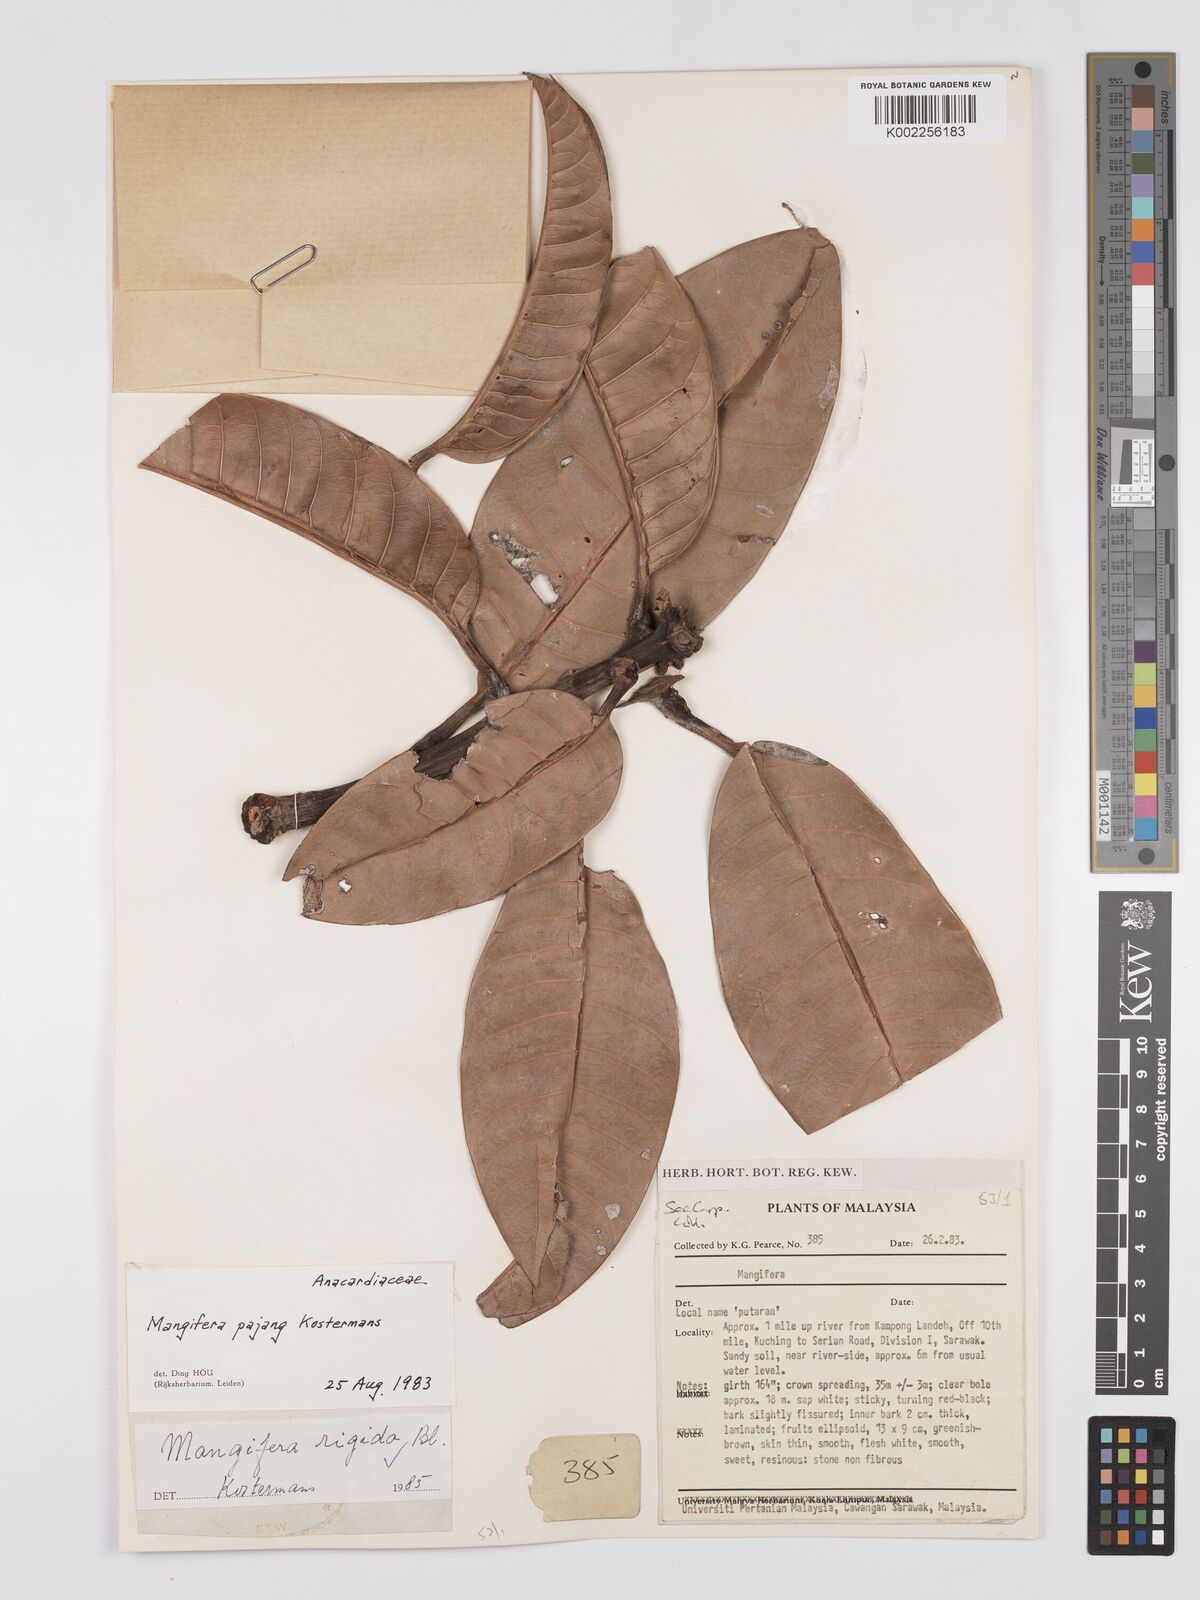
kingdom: Plantae
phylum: Tracheophyta
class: Magnoliopsida
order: Sapindales
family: Anacardiaceae
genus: Mangifera
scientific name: Mangifera quadrifida
